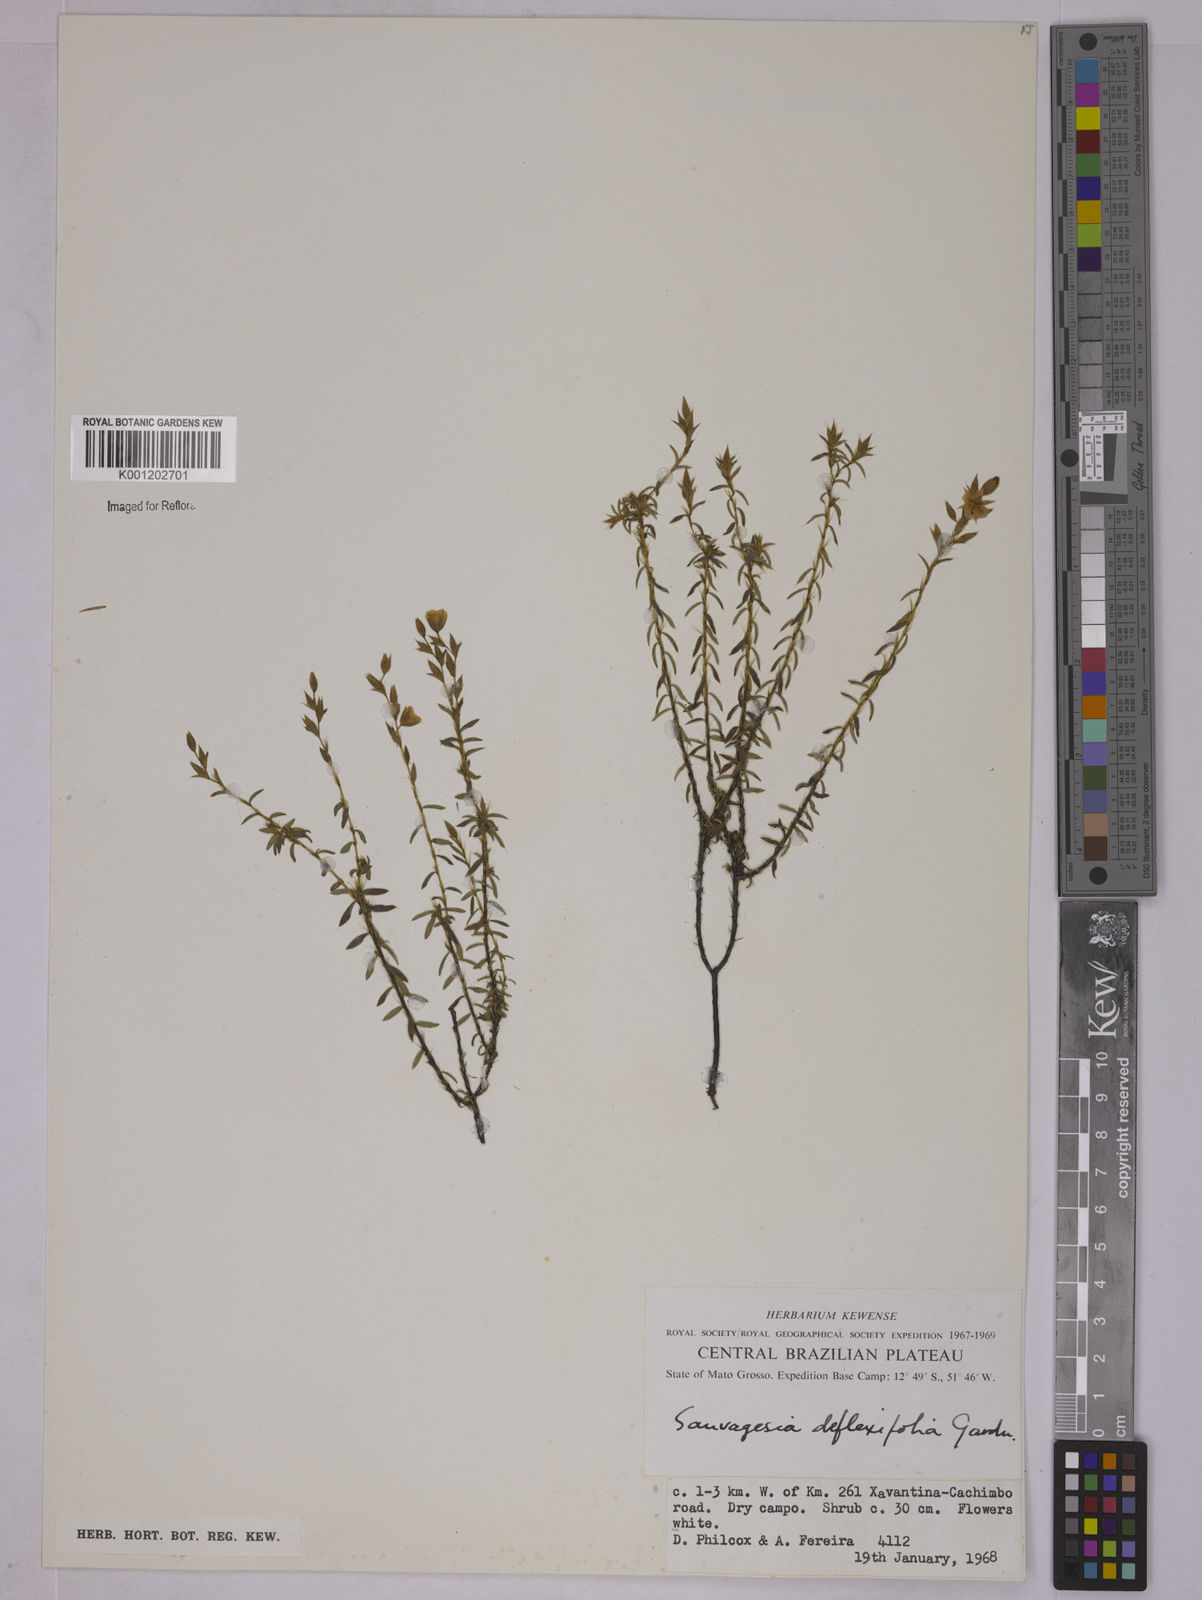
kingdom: Plantae
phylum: Tracheophyta
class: Magnoliopsida
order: Malpighiales
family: Ochnaceae
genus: Sauvagesia
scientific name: Sauvagesia deflexifolia
